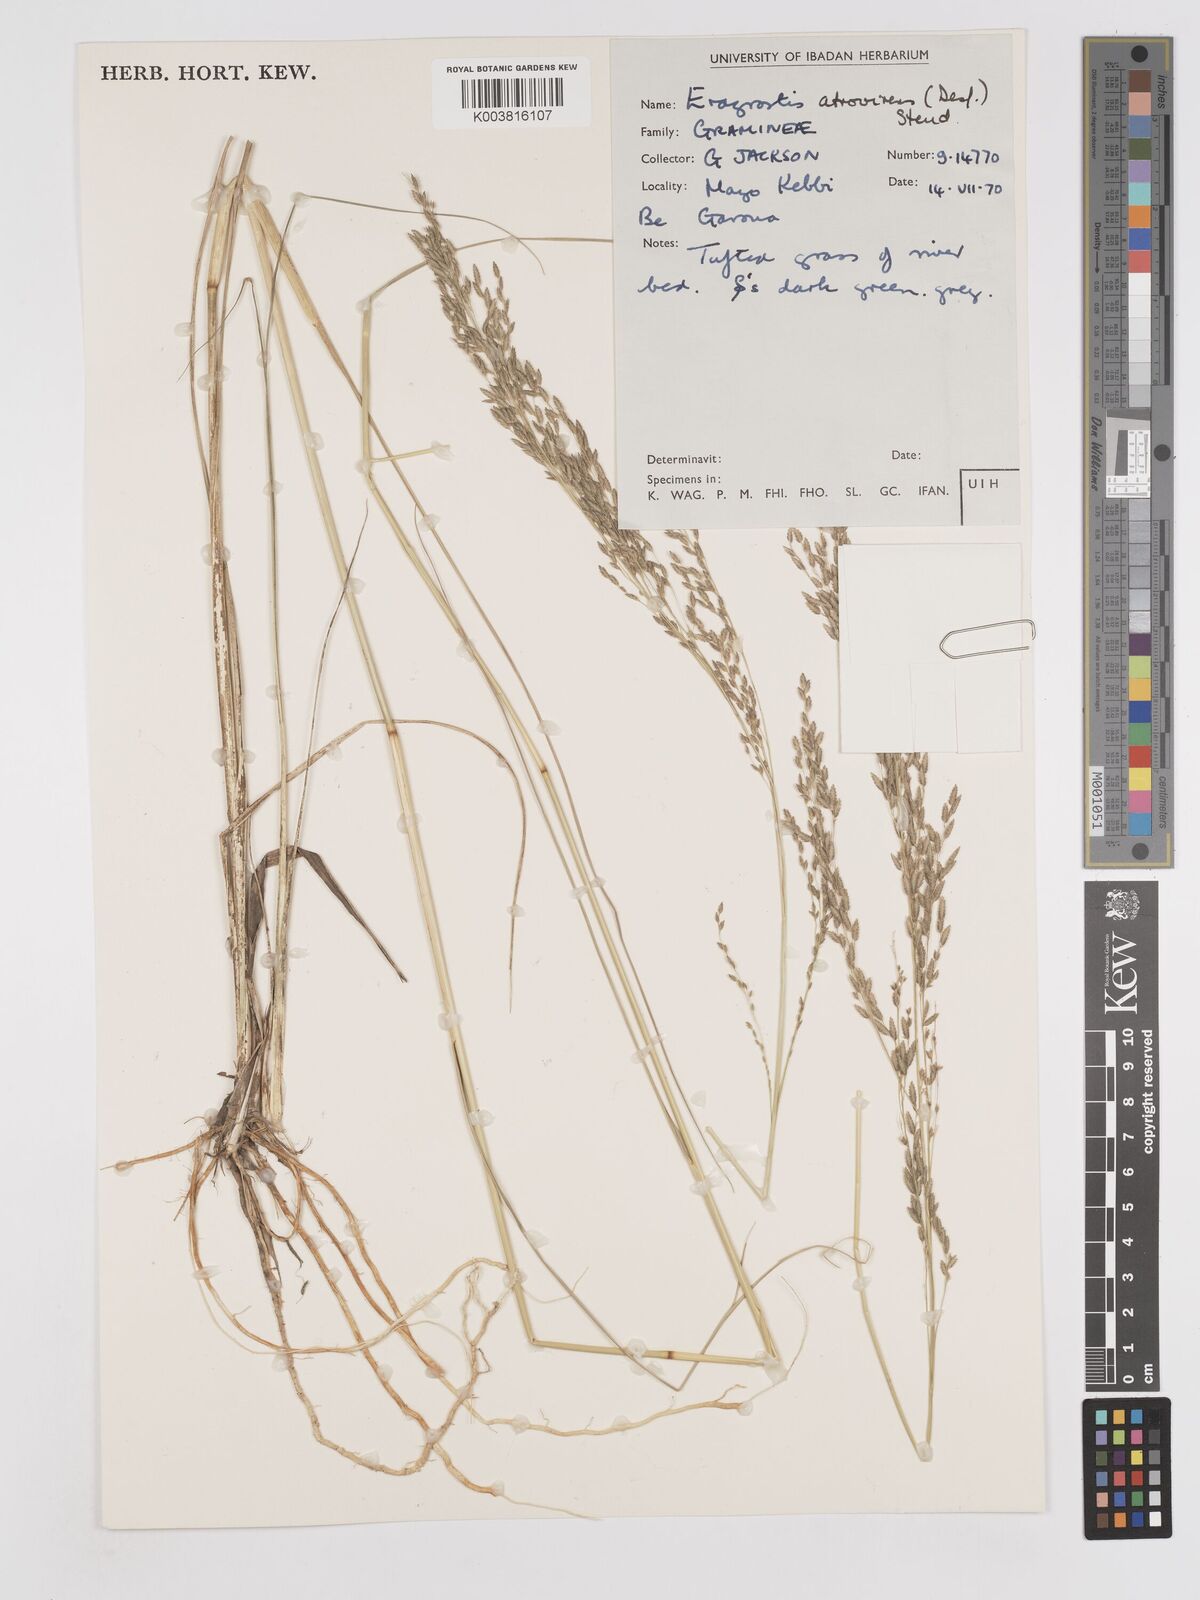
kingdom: Plantae
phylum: Tracheophyta
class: Liliopsida
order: Poales
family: Poaceae
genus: Eragrostis
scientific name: Eragrostis atrovirens
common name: Thalia lovegrass
